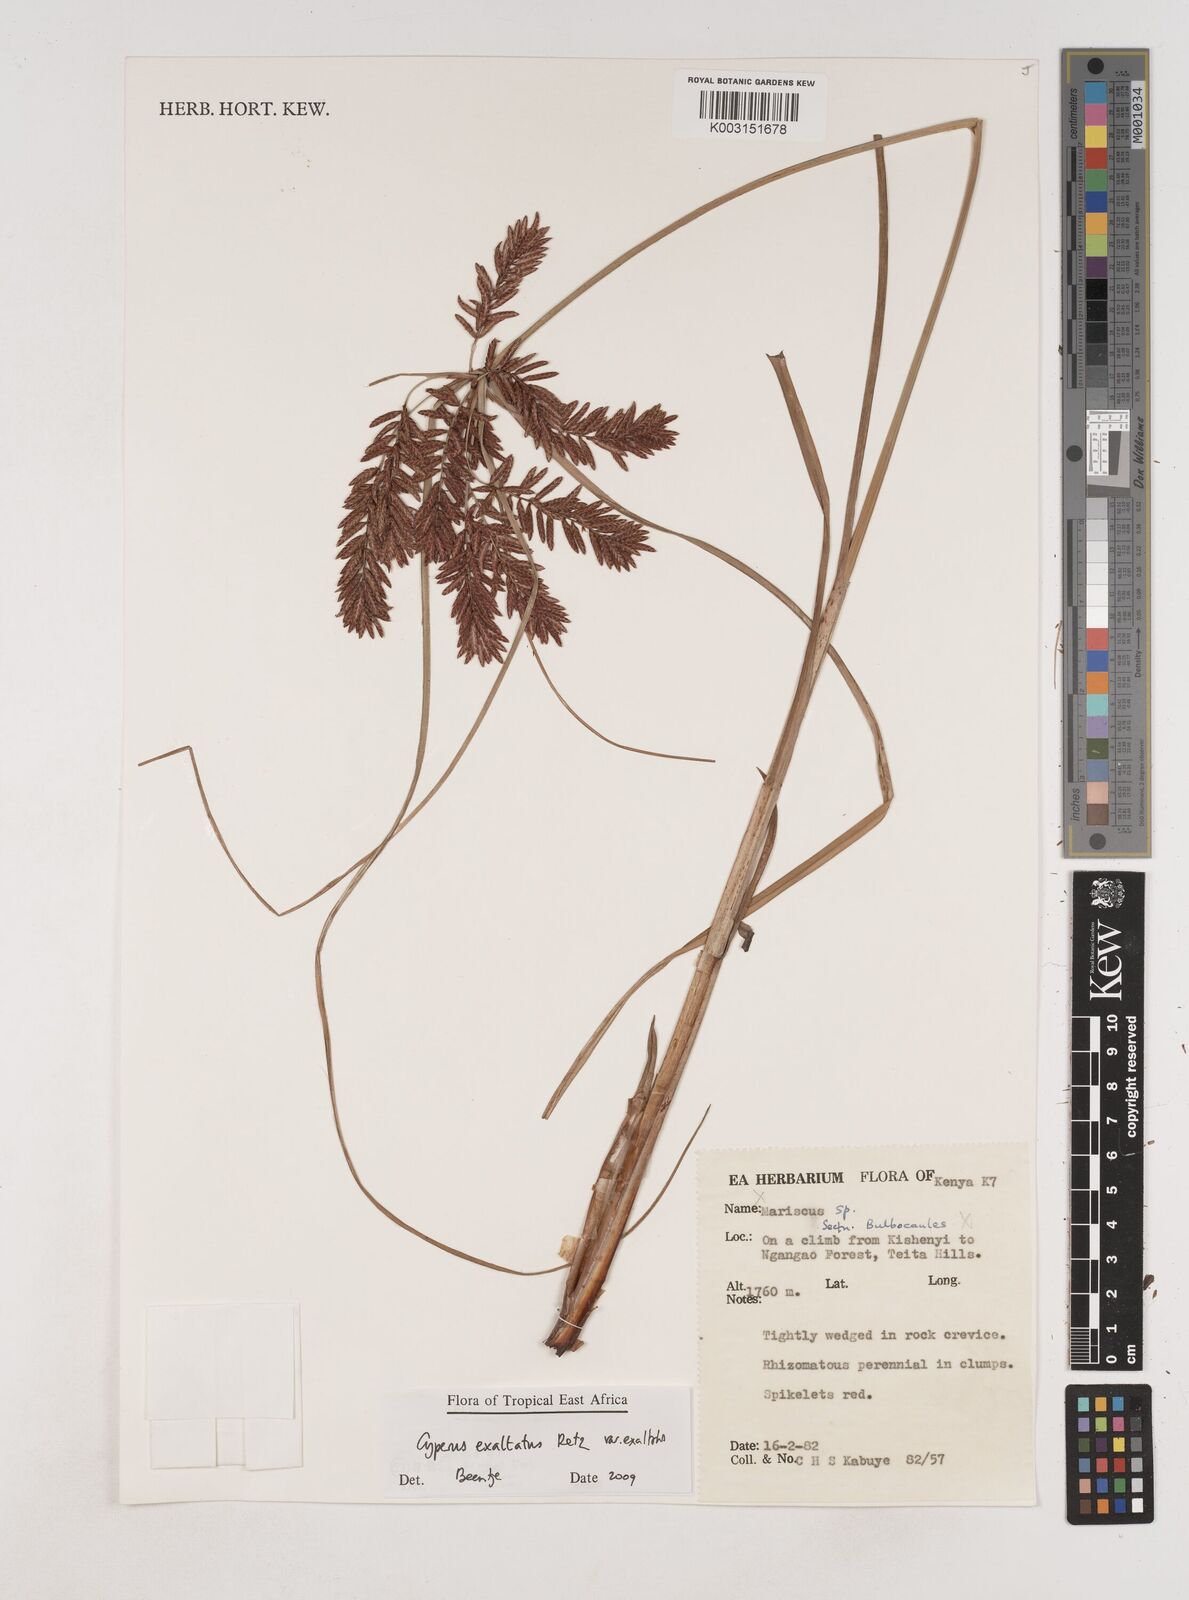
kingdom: Plantae
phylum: Tracheophyta
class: Liliopsida
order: Poales
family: Cyperaceae
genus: Cyperus
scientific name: Cyperus exaltatus
